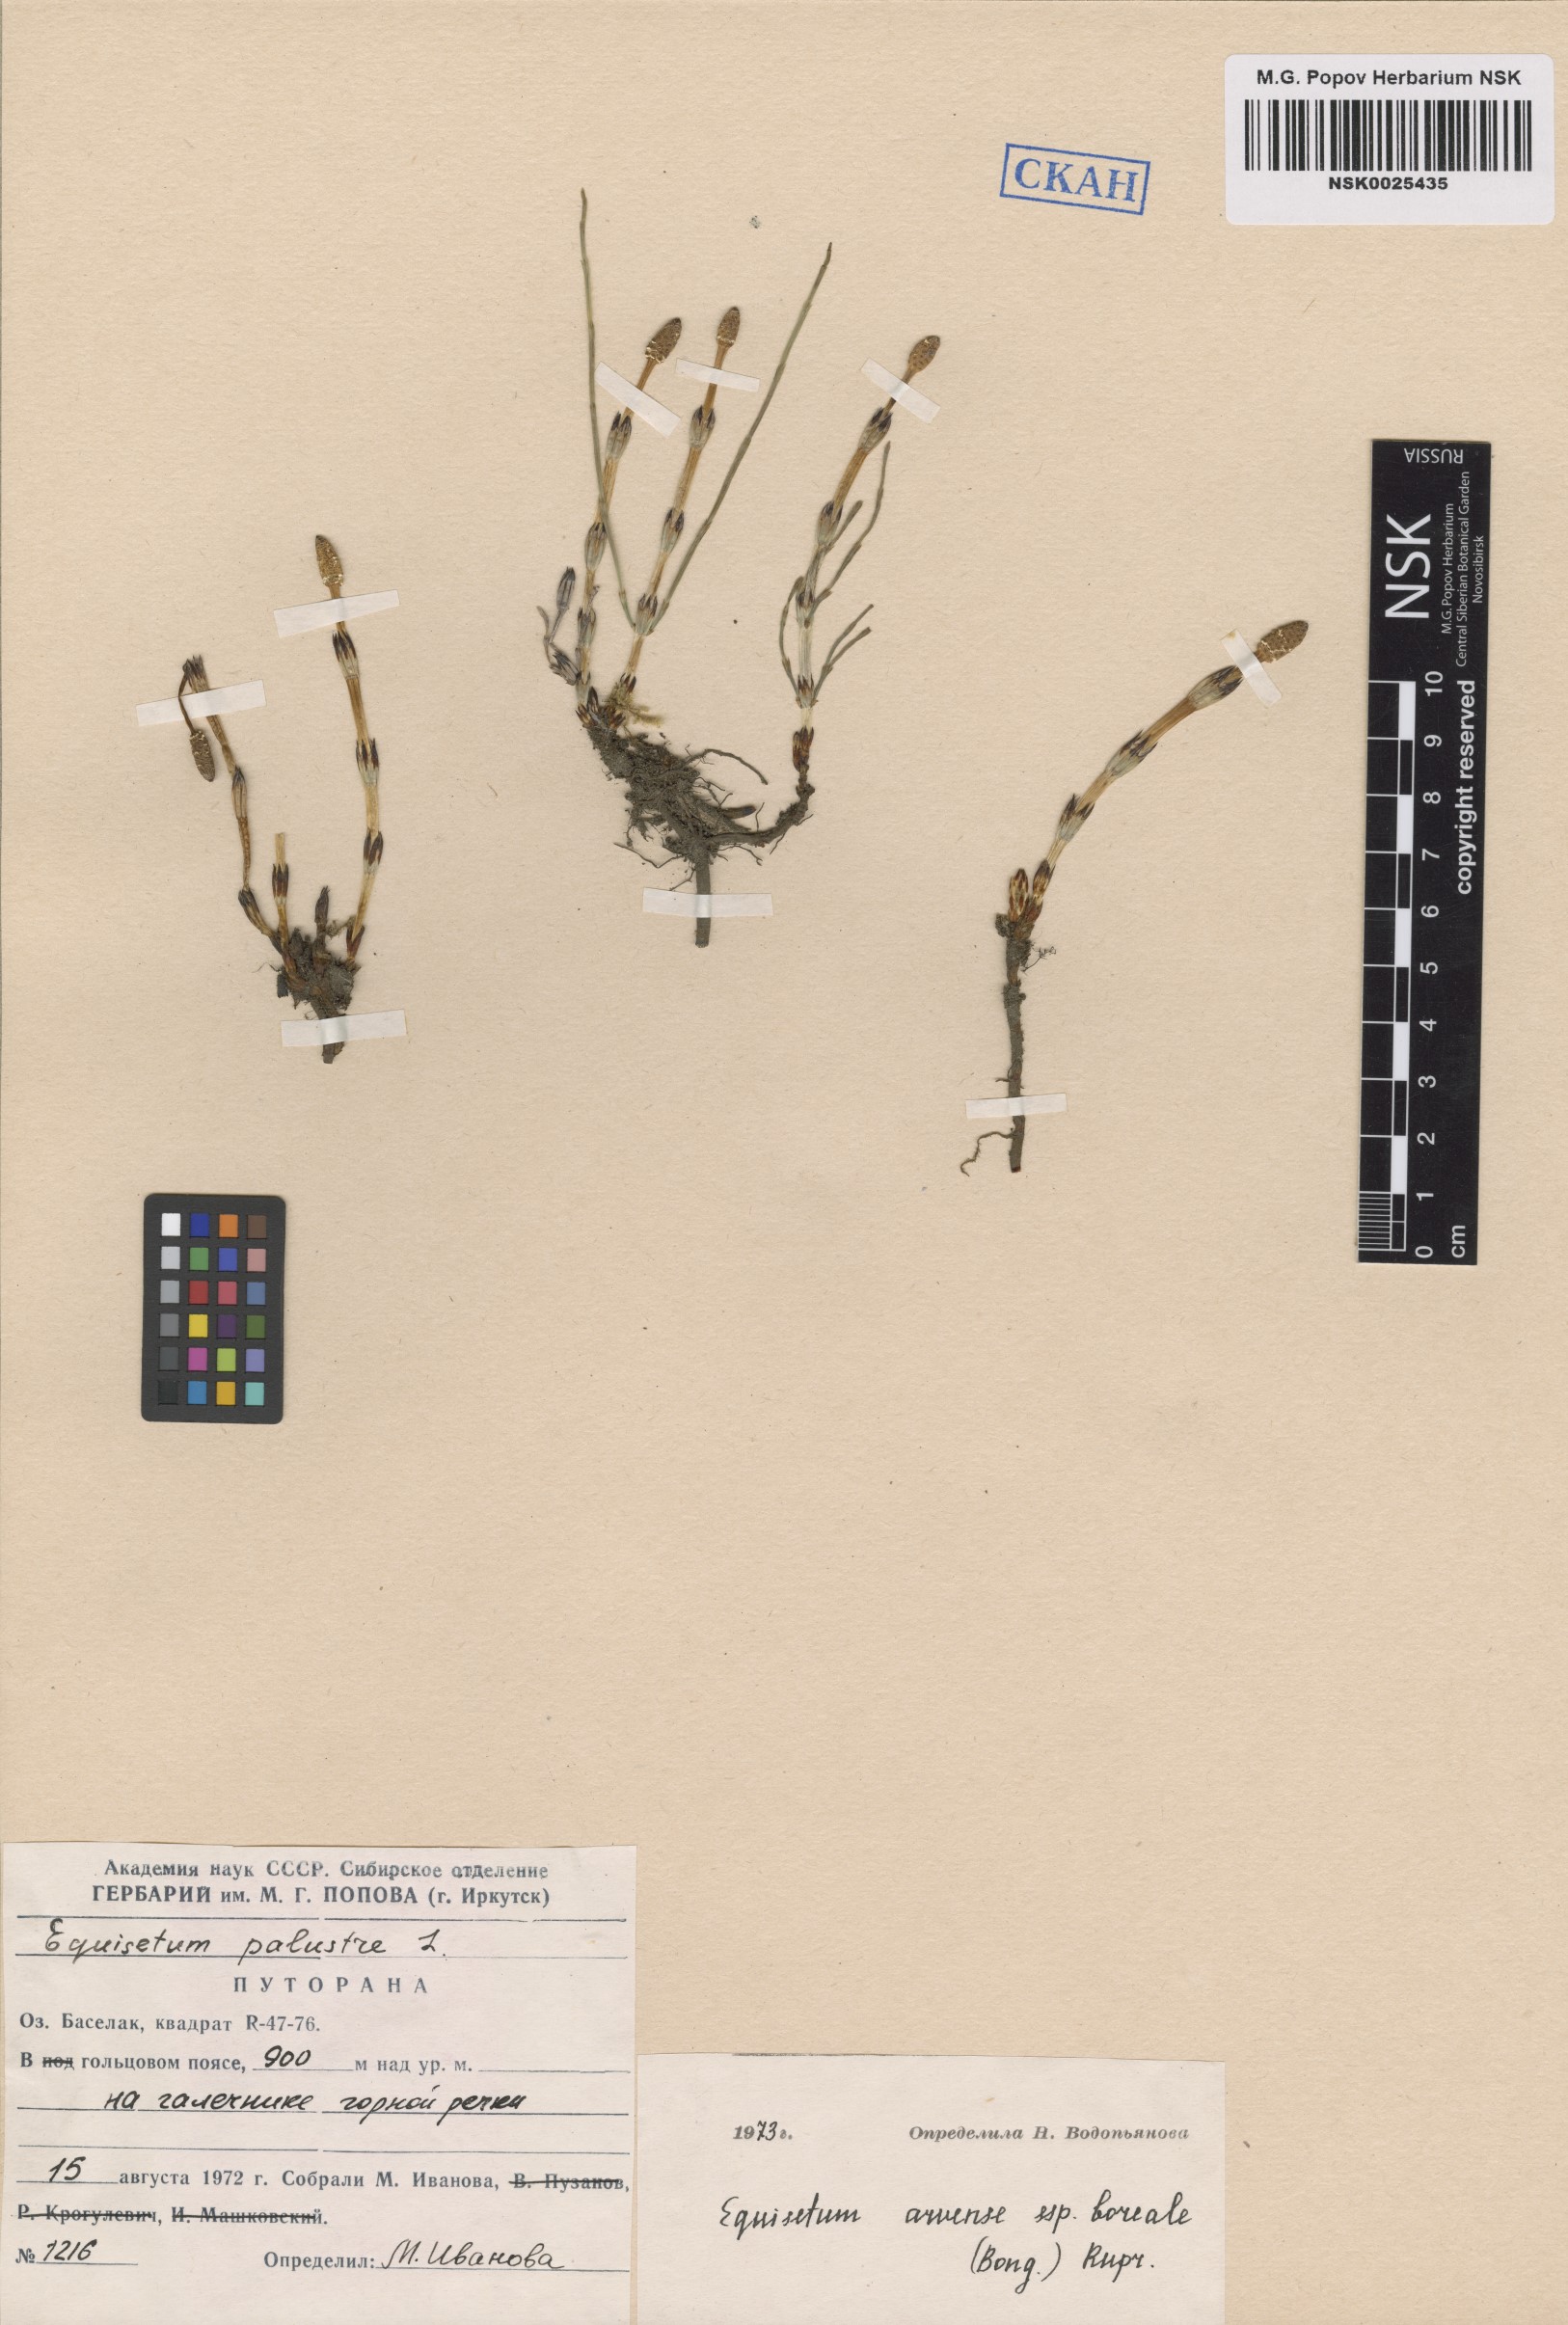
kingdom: Plantae
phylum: Tracheophyta
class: Polypodiopsida
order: Equisetales
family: Equisetaceae
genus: Equisetum
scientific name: Equisetum arvense
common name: Field horsetail
